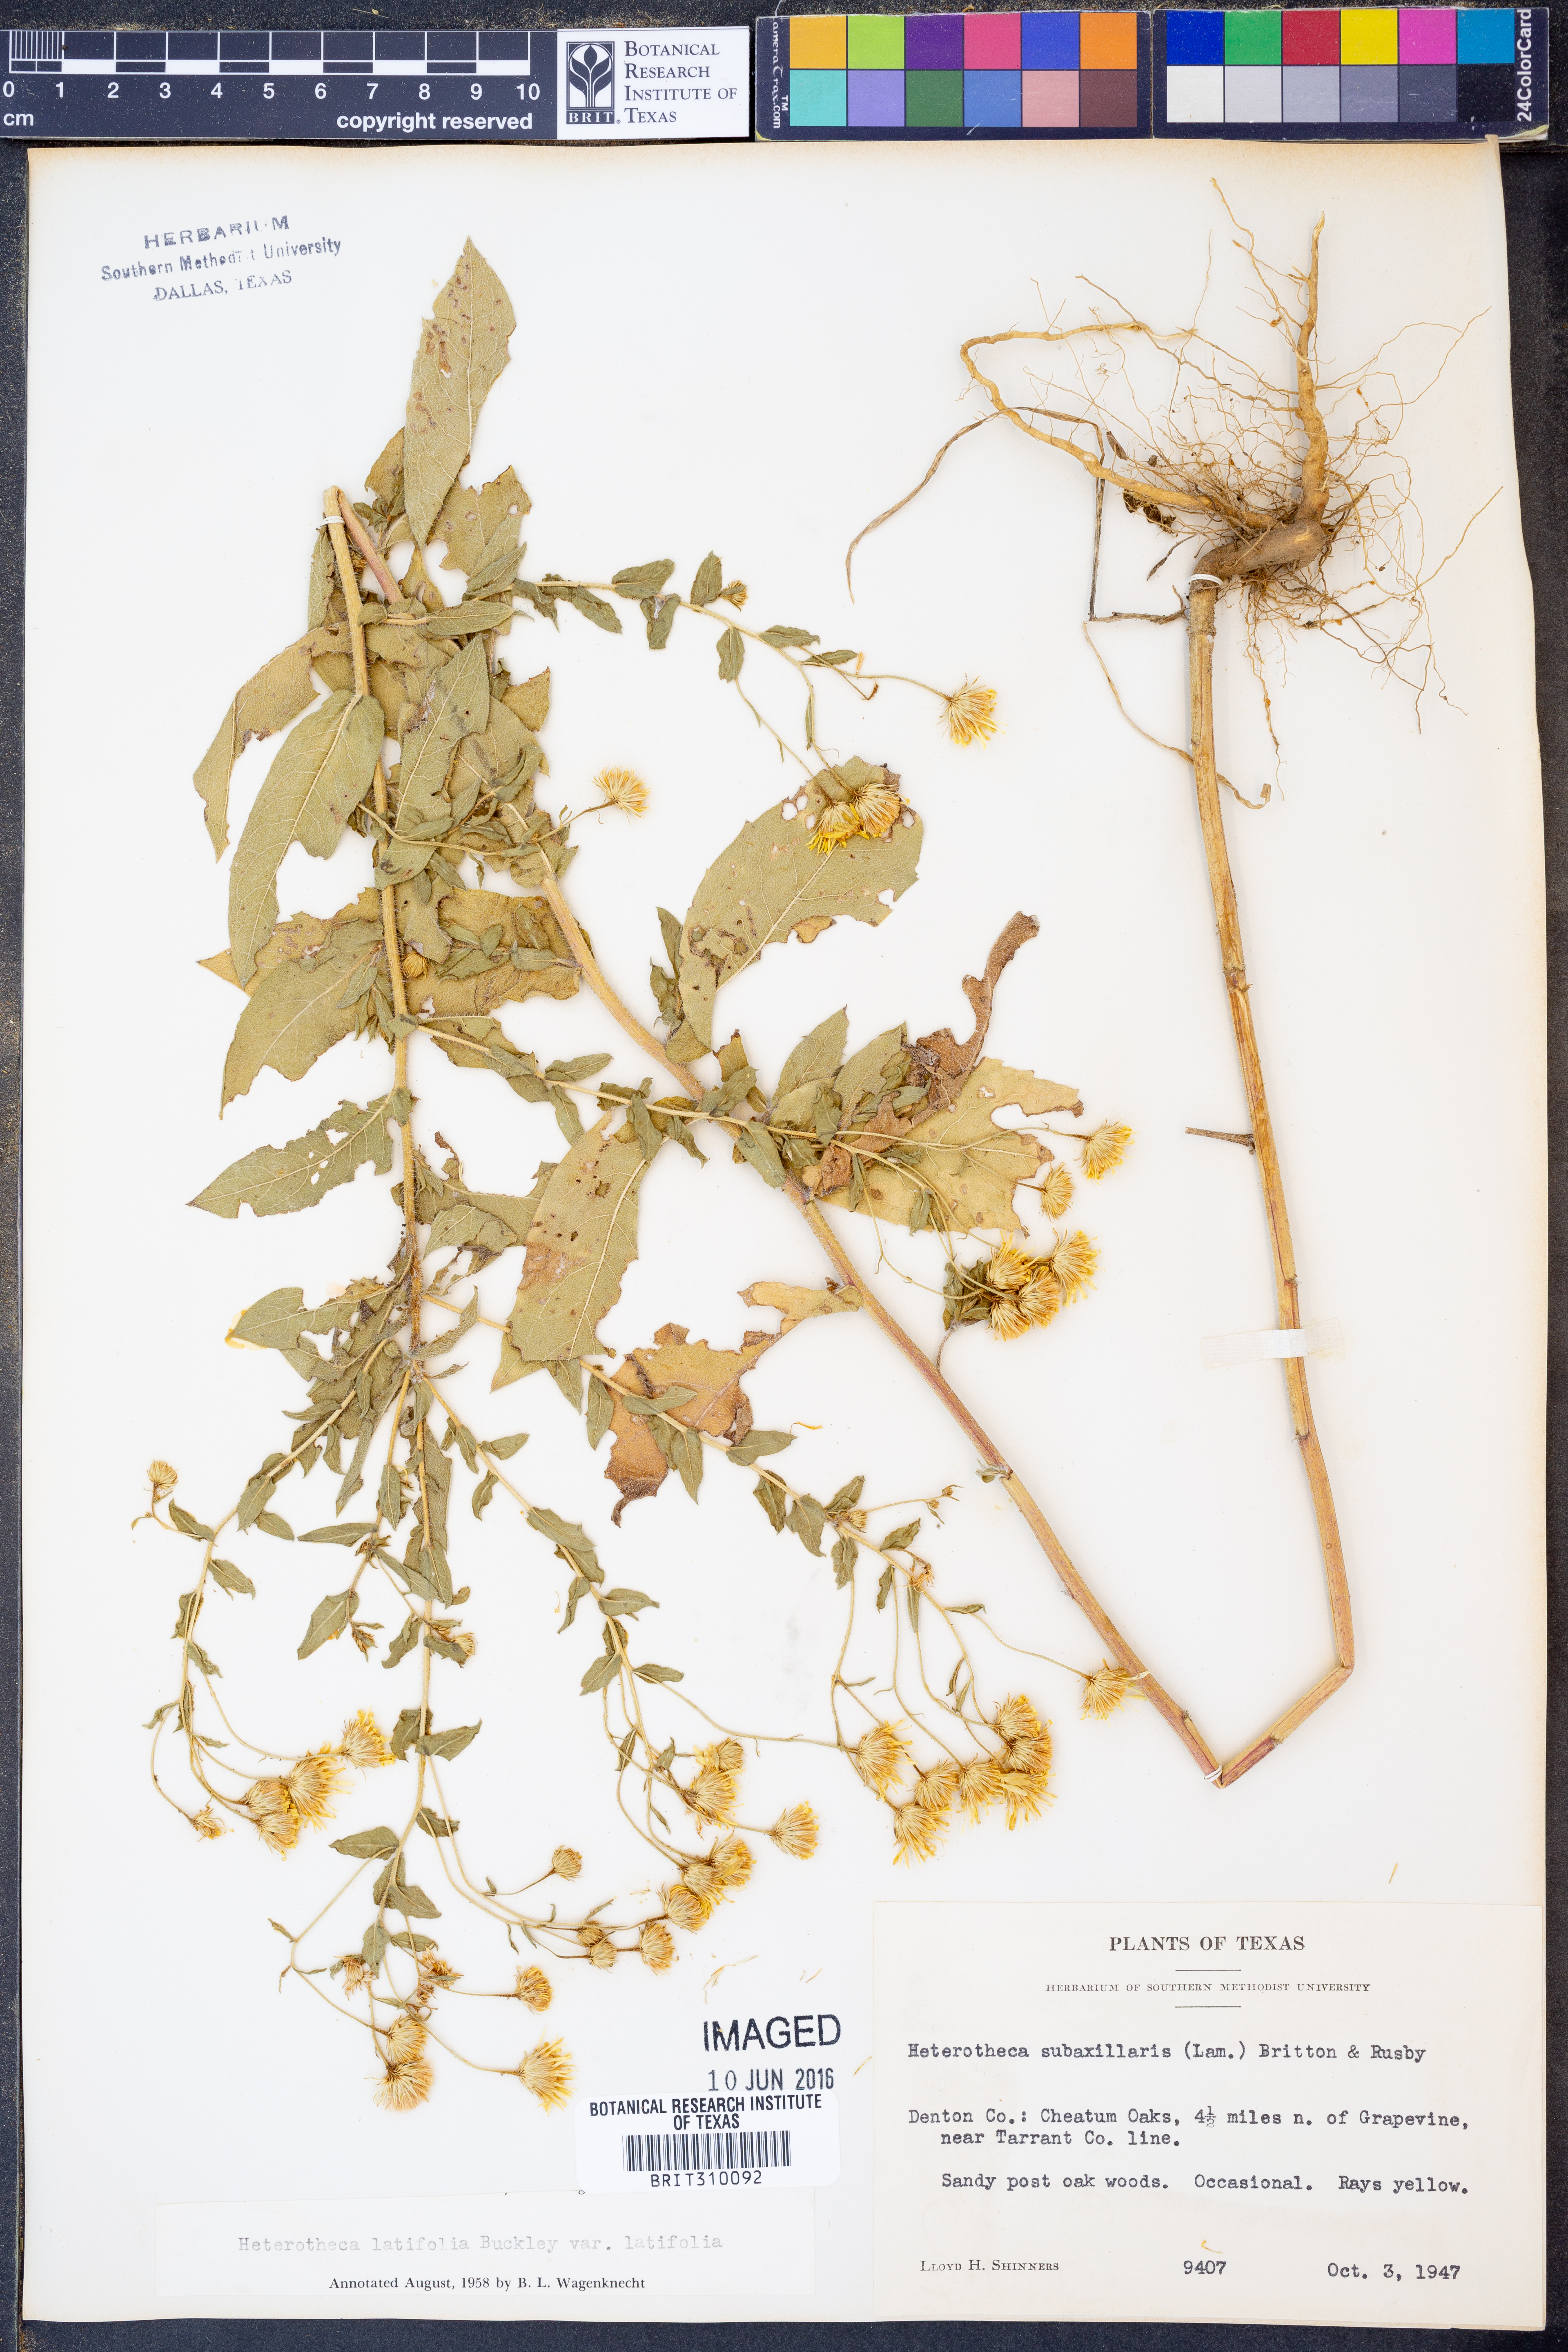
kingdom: Plantae
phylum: Tracheophyta
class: Magnoliopsida
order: Asterales
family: Asteraceae
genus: Heterotheca
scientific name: Heterotheca subaxillaris
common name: Camphorweed
